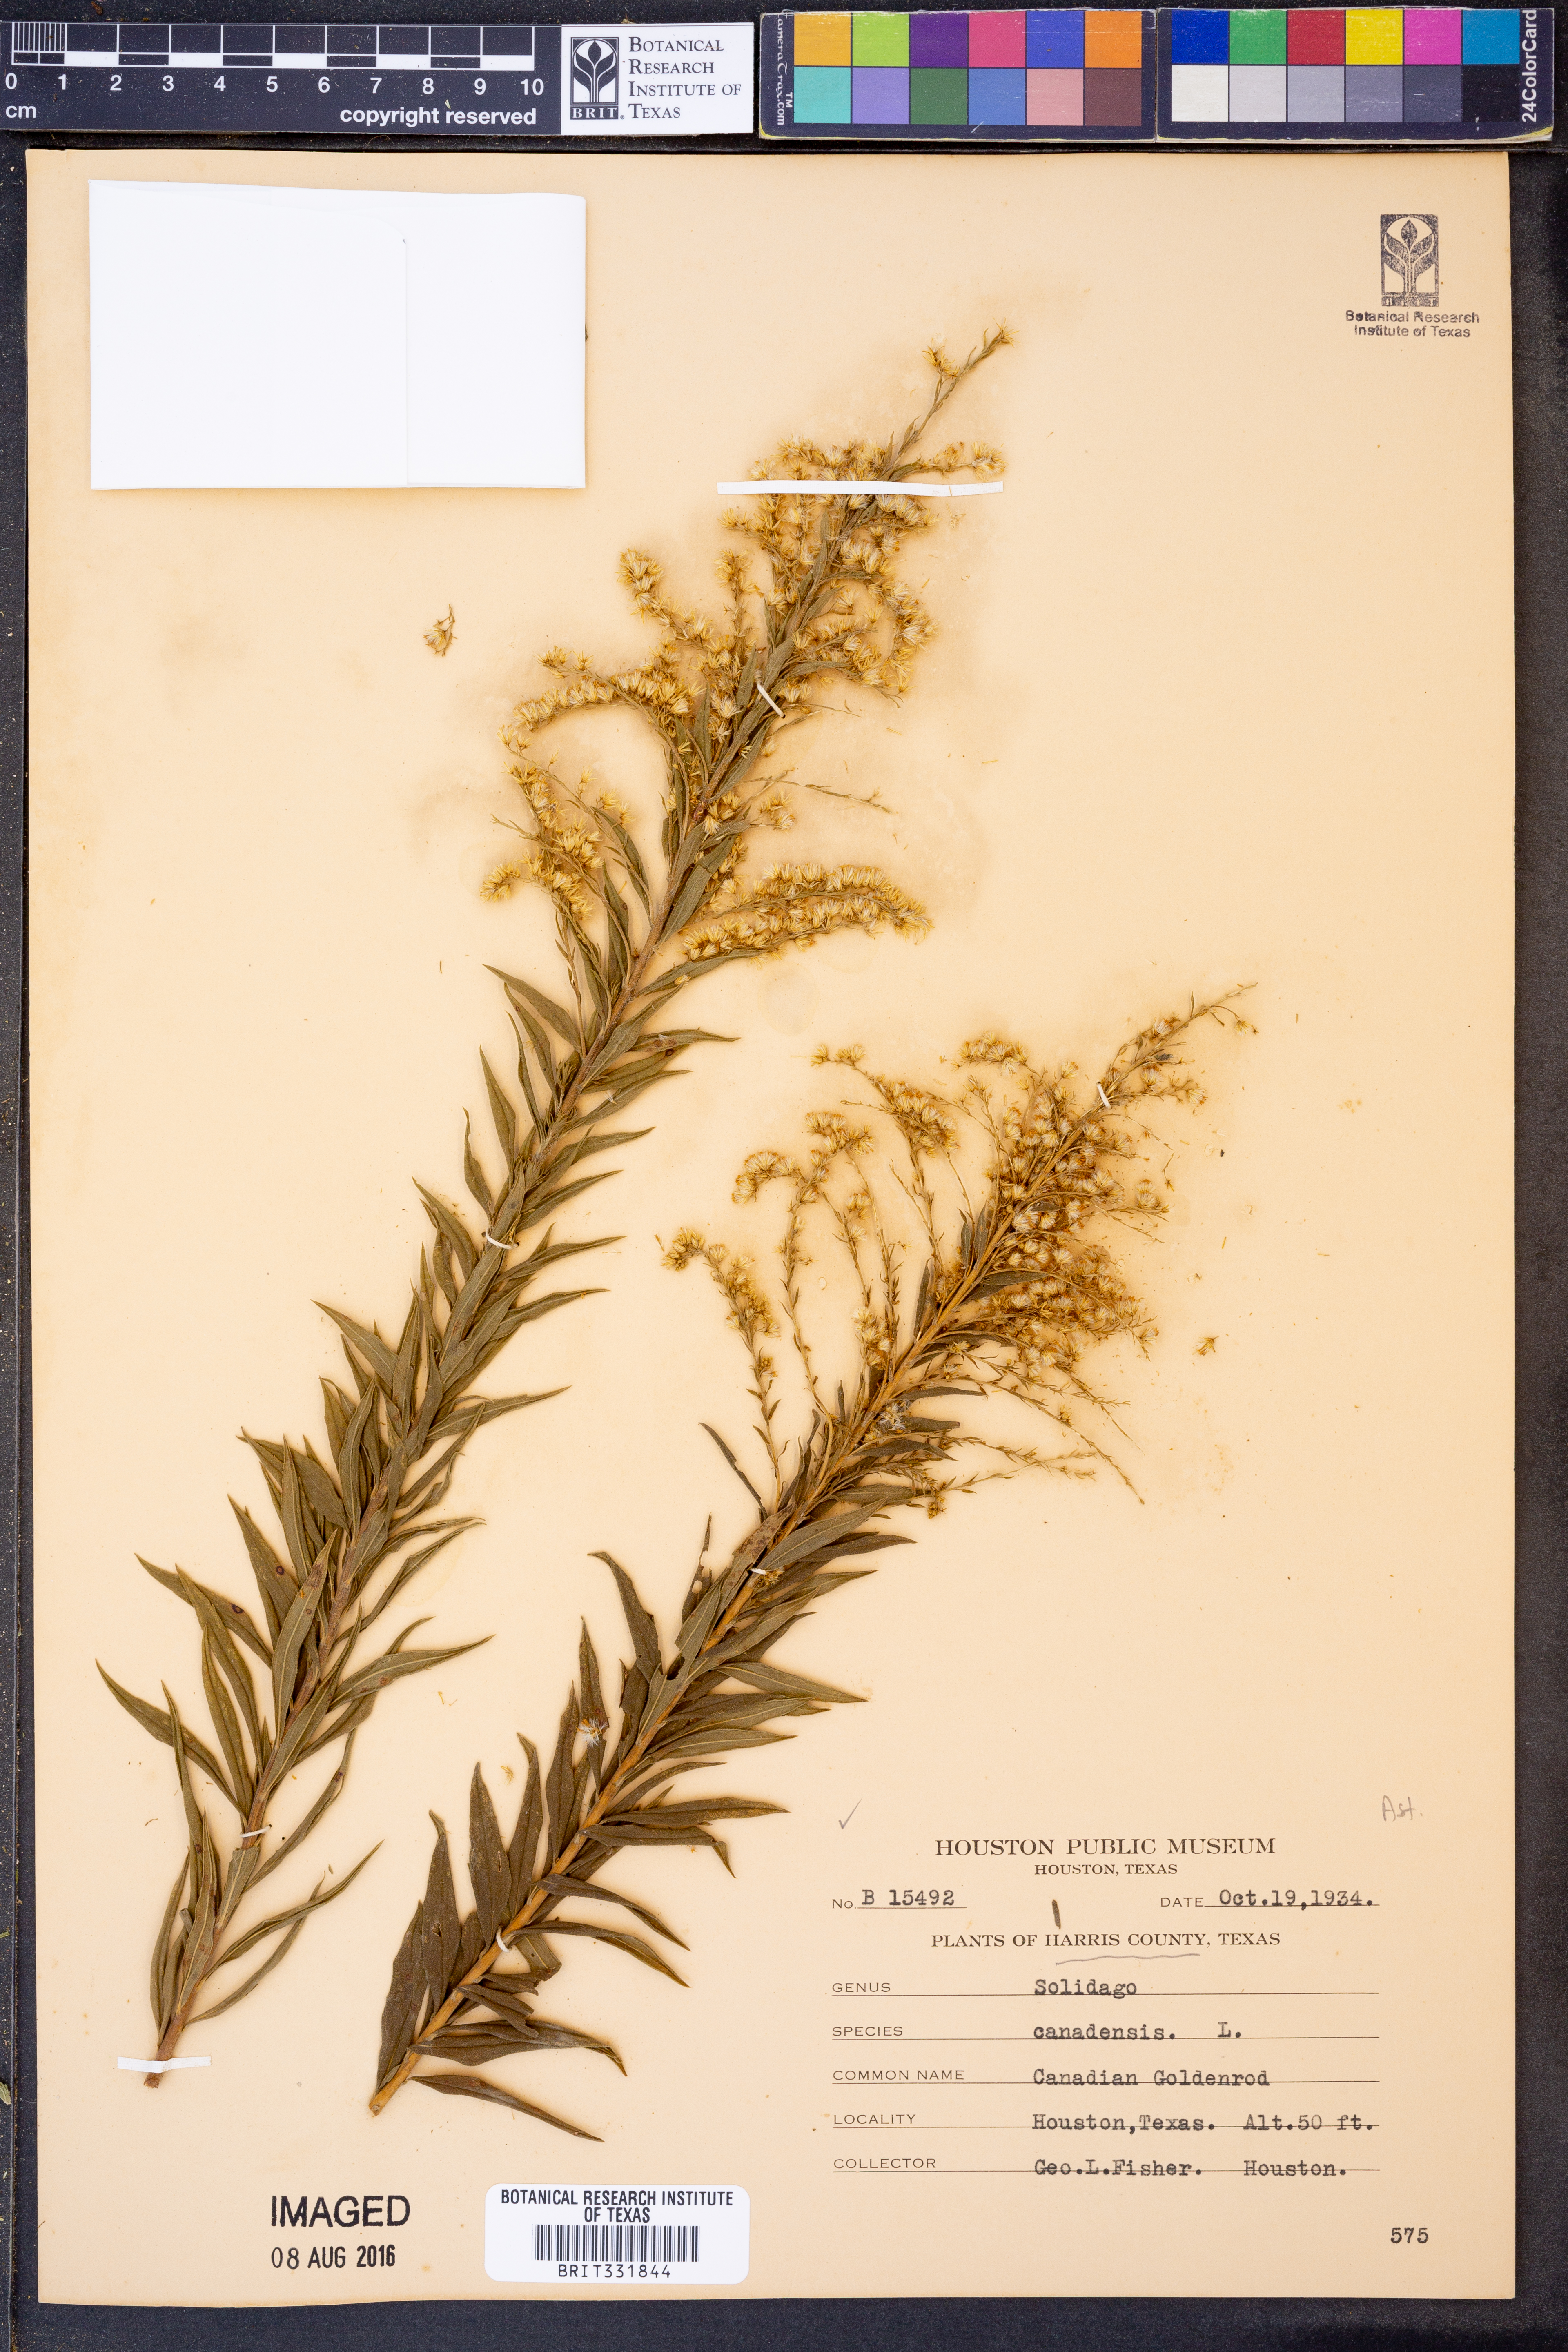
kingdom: Plantae
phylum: Tracheophyta
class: Magnoliopsida
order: Asterales
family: Asteraceae
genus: Solidago
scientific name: Solidago altissima
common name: Late goldenrod
